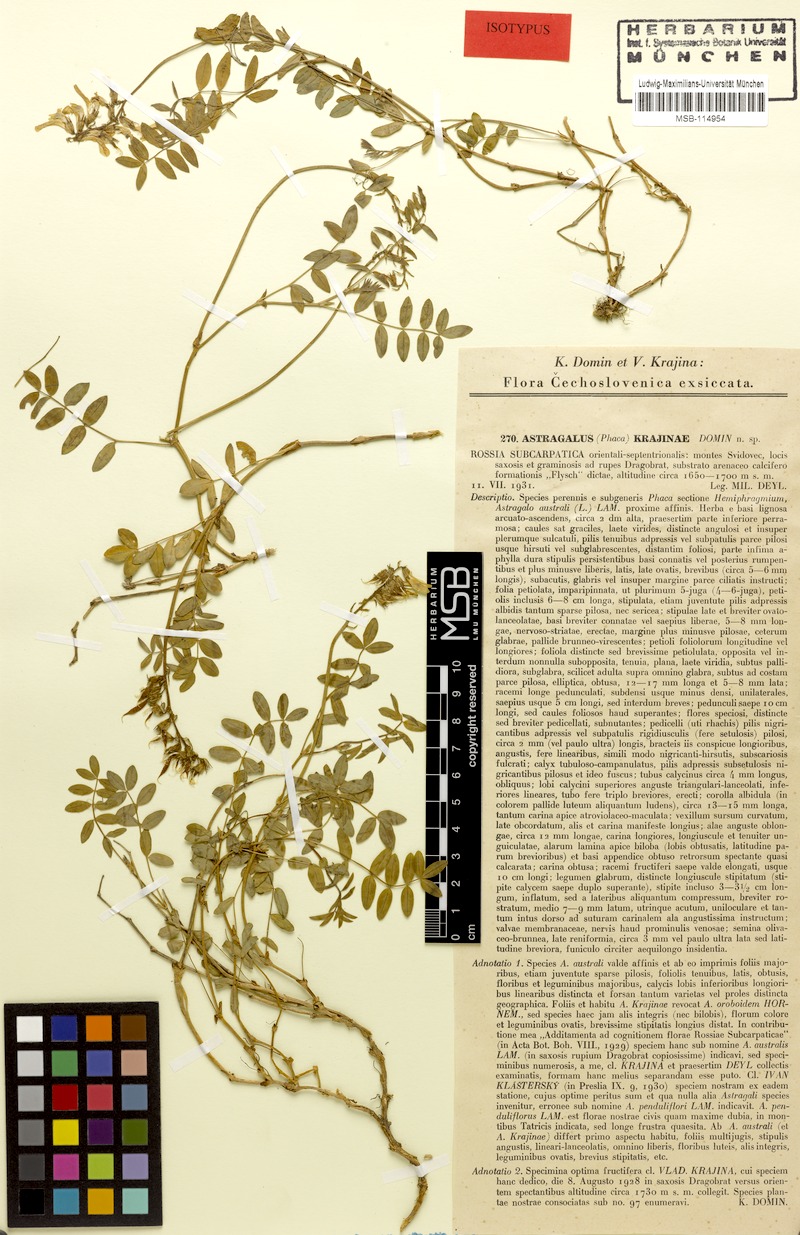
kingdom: Plantae
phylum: Tracheophyta
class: Magnoliopsida
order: Fabales
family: Fabaceae
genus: Astragalus
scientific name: Astragalus australis
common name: Indian milk-vetch
